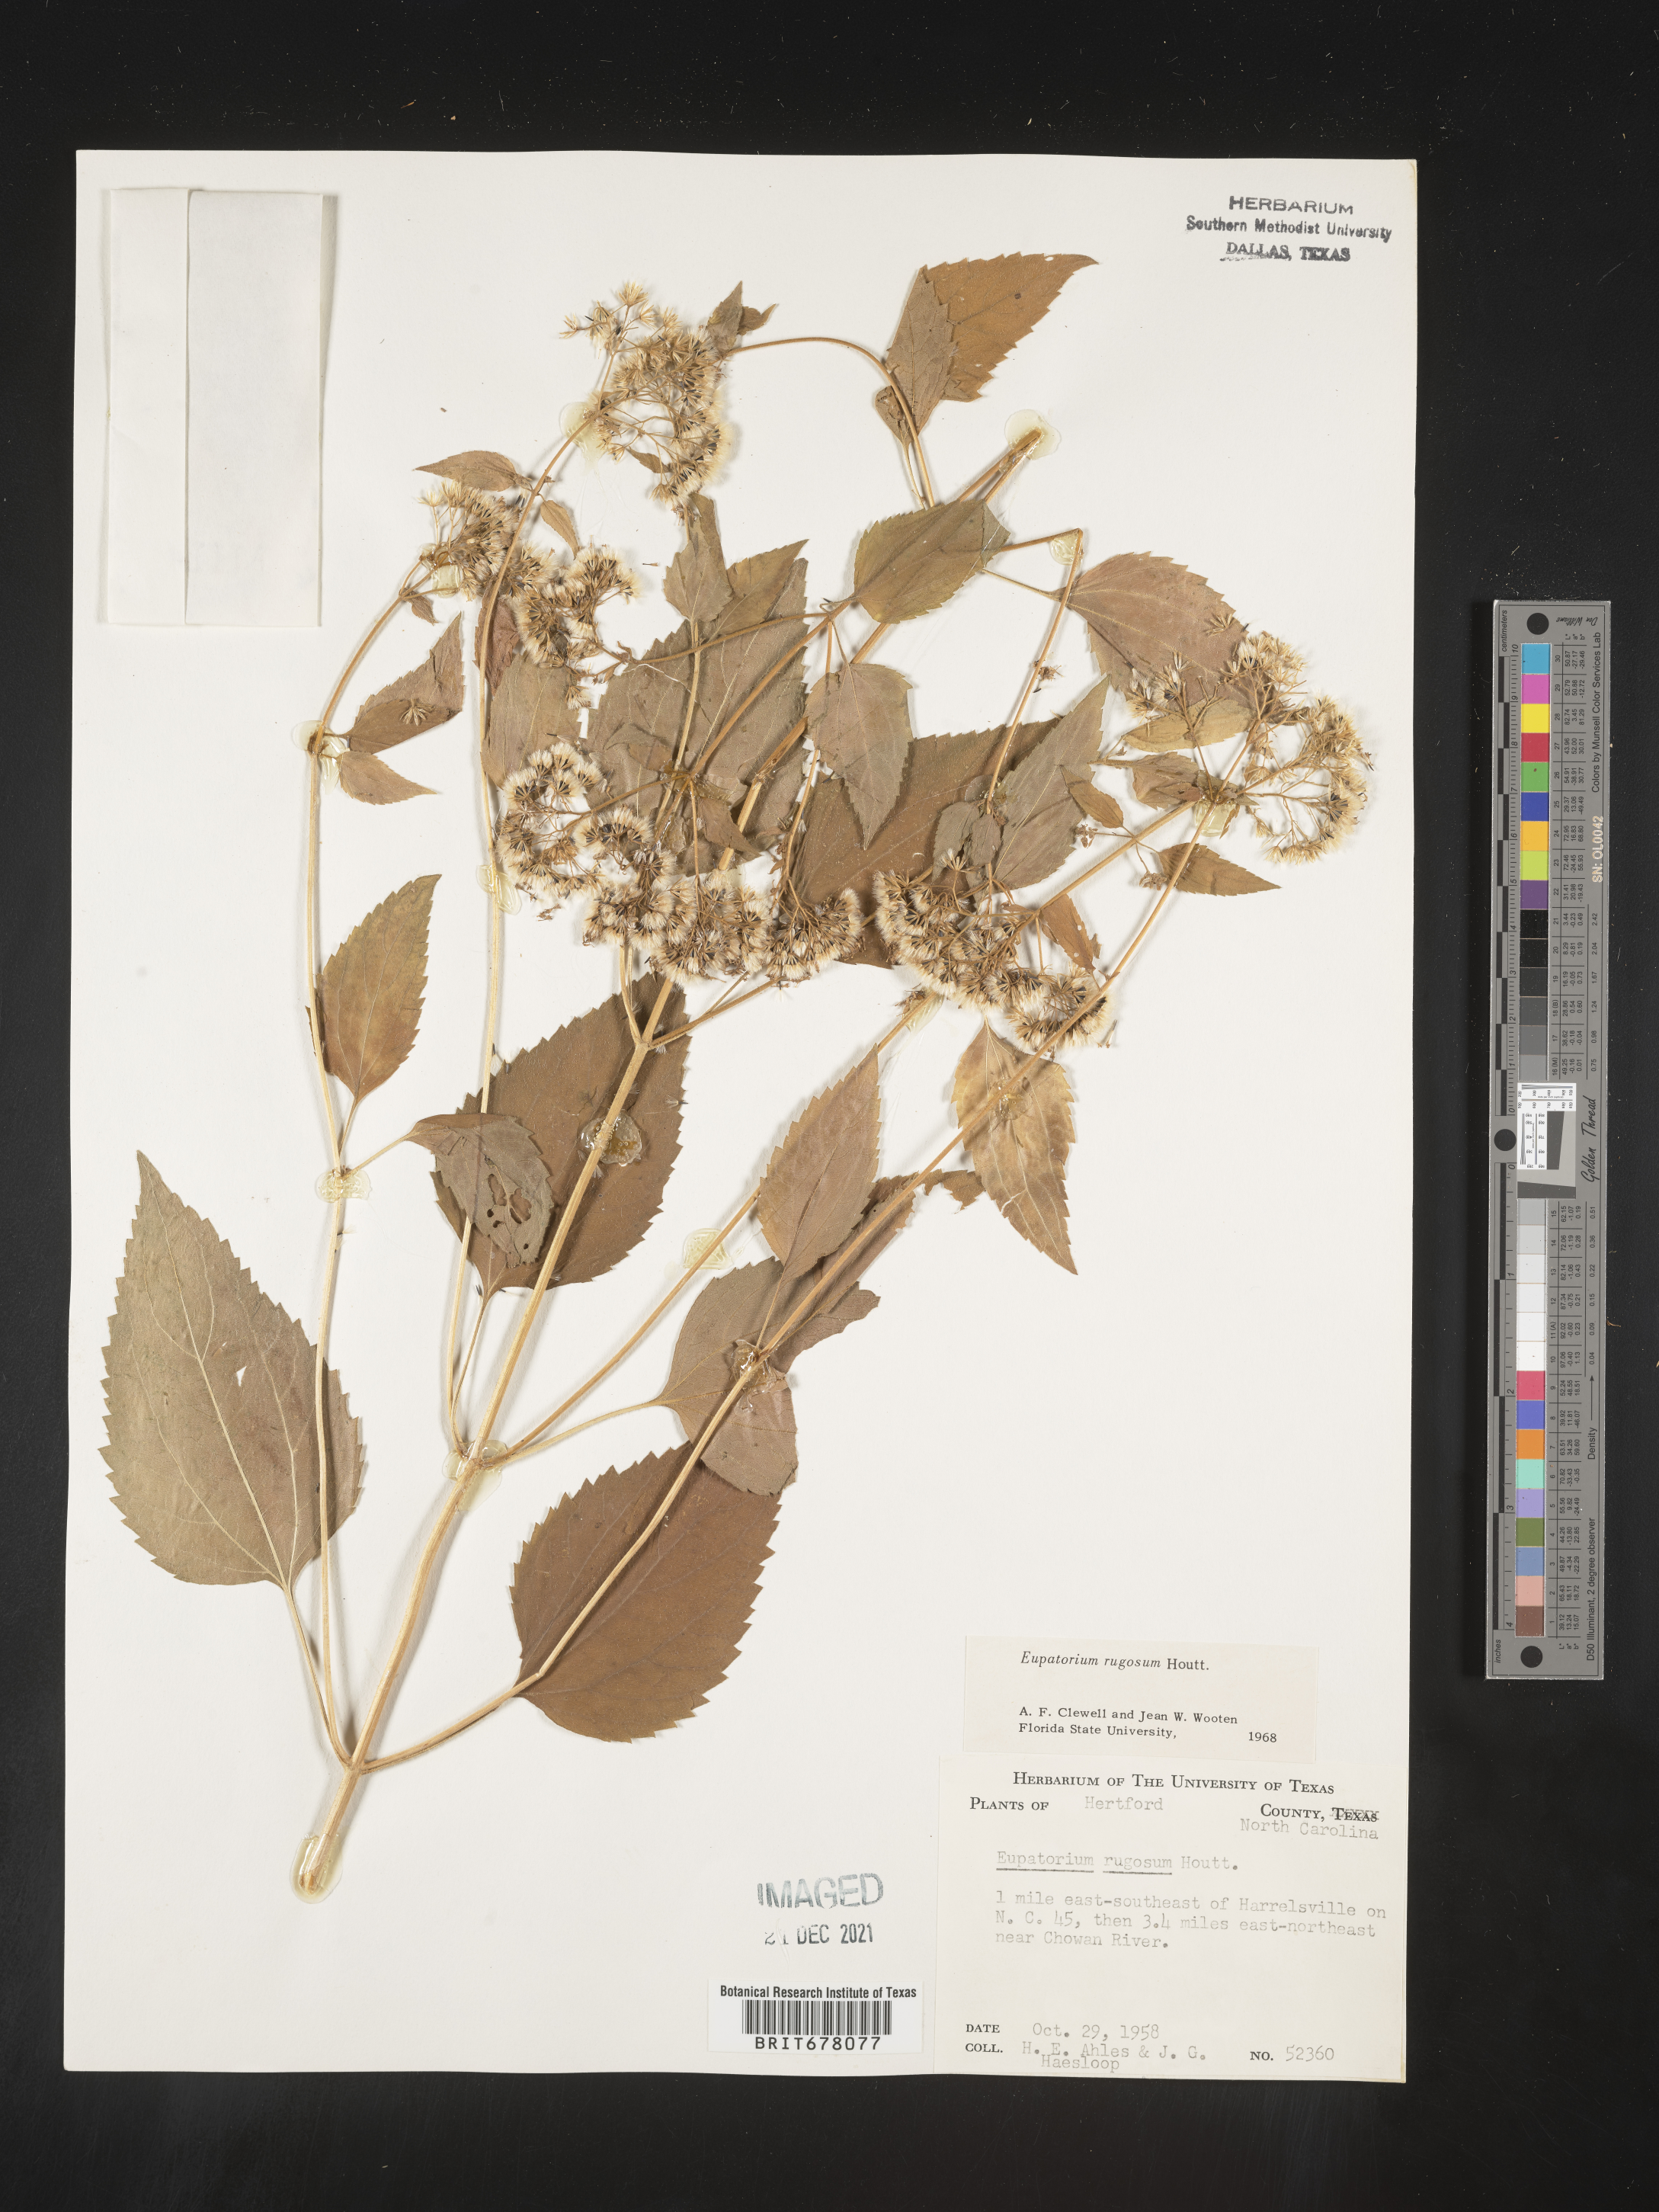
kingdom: Plantae
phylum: Tracheophyta
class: Magnoliopsida
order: Asterales
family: Asteraceae
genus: Eupatorium
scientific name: Eupatorium
